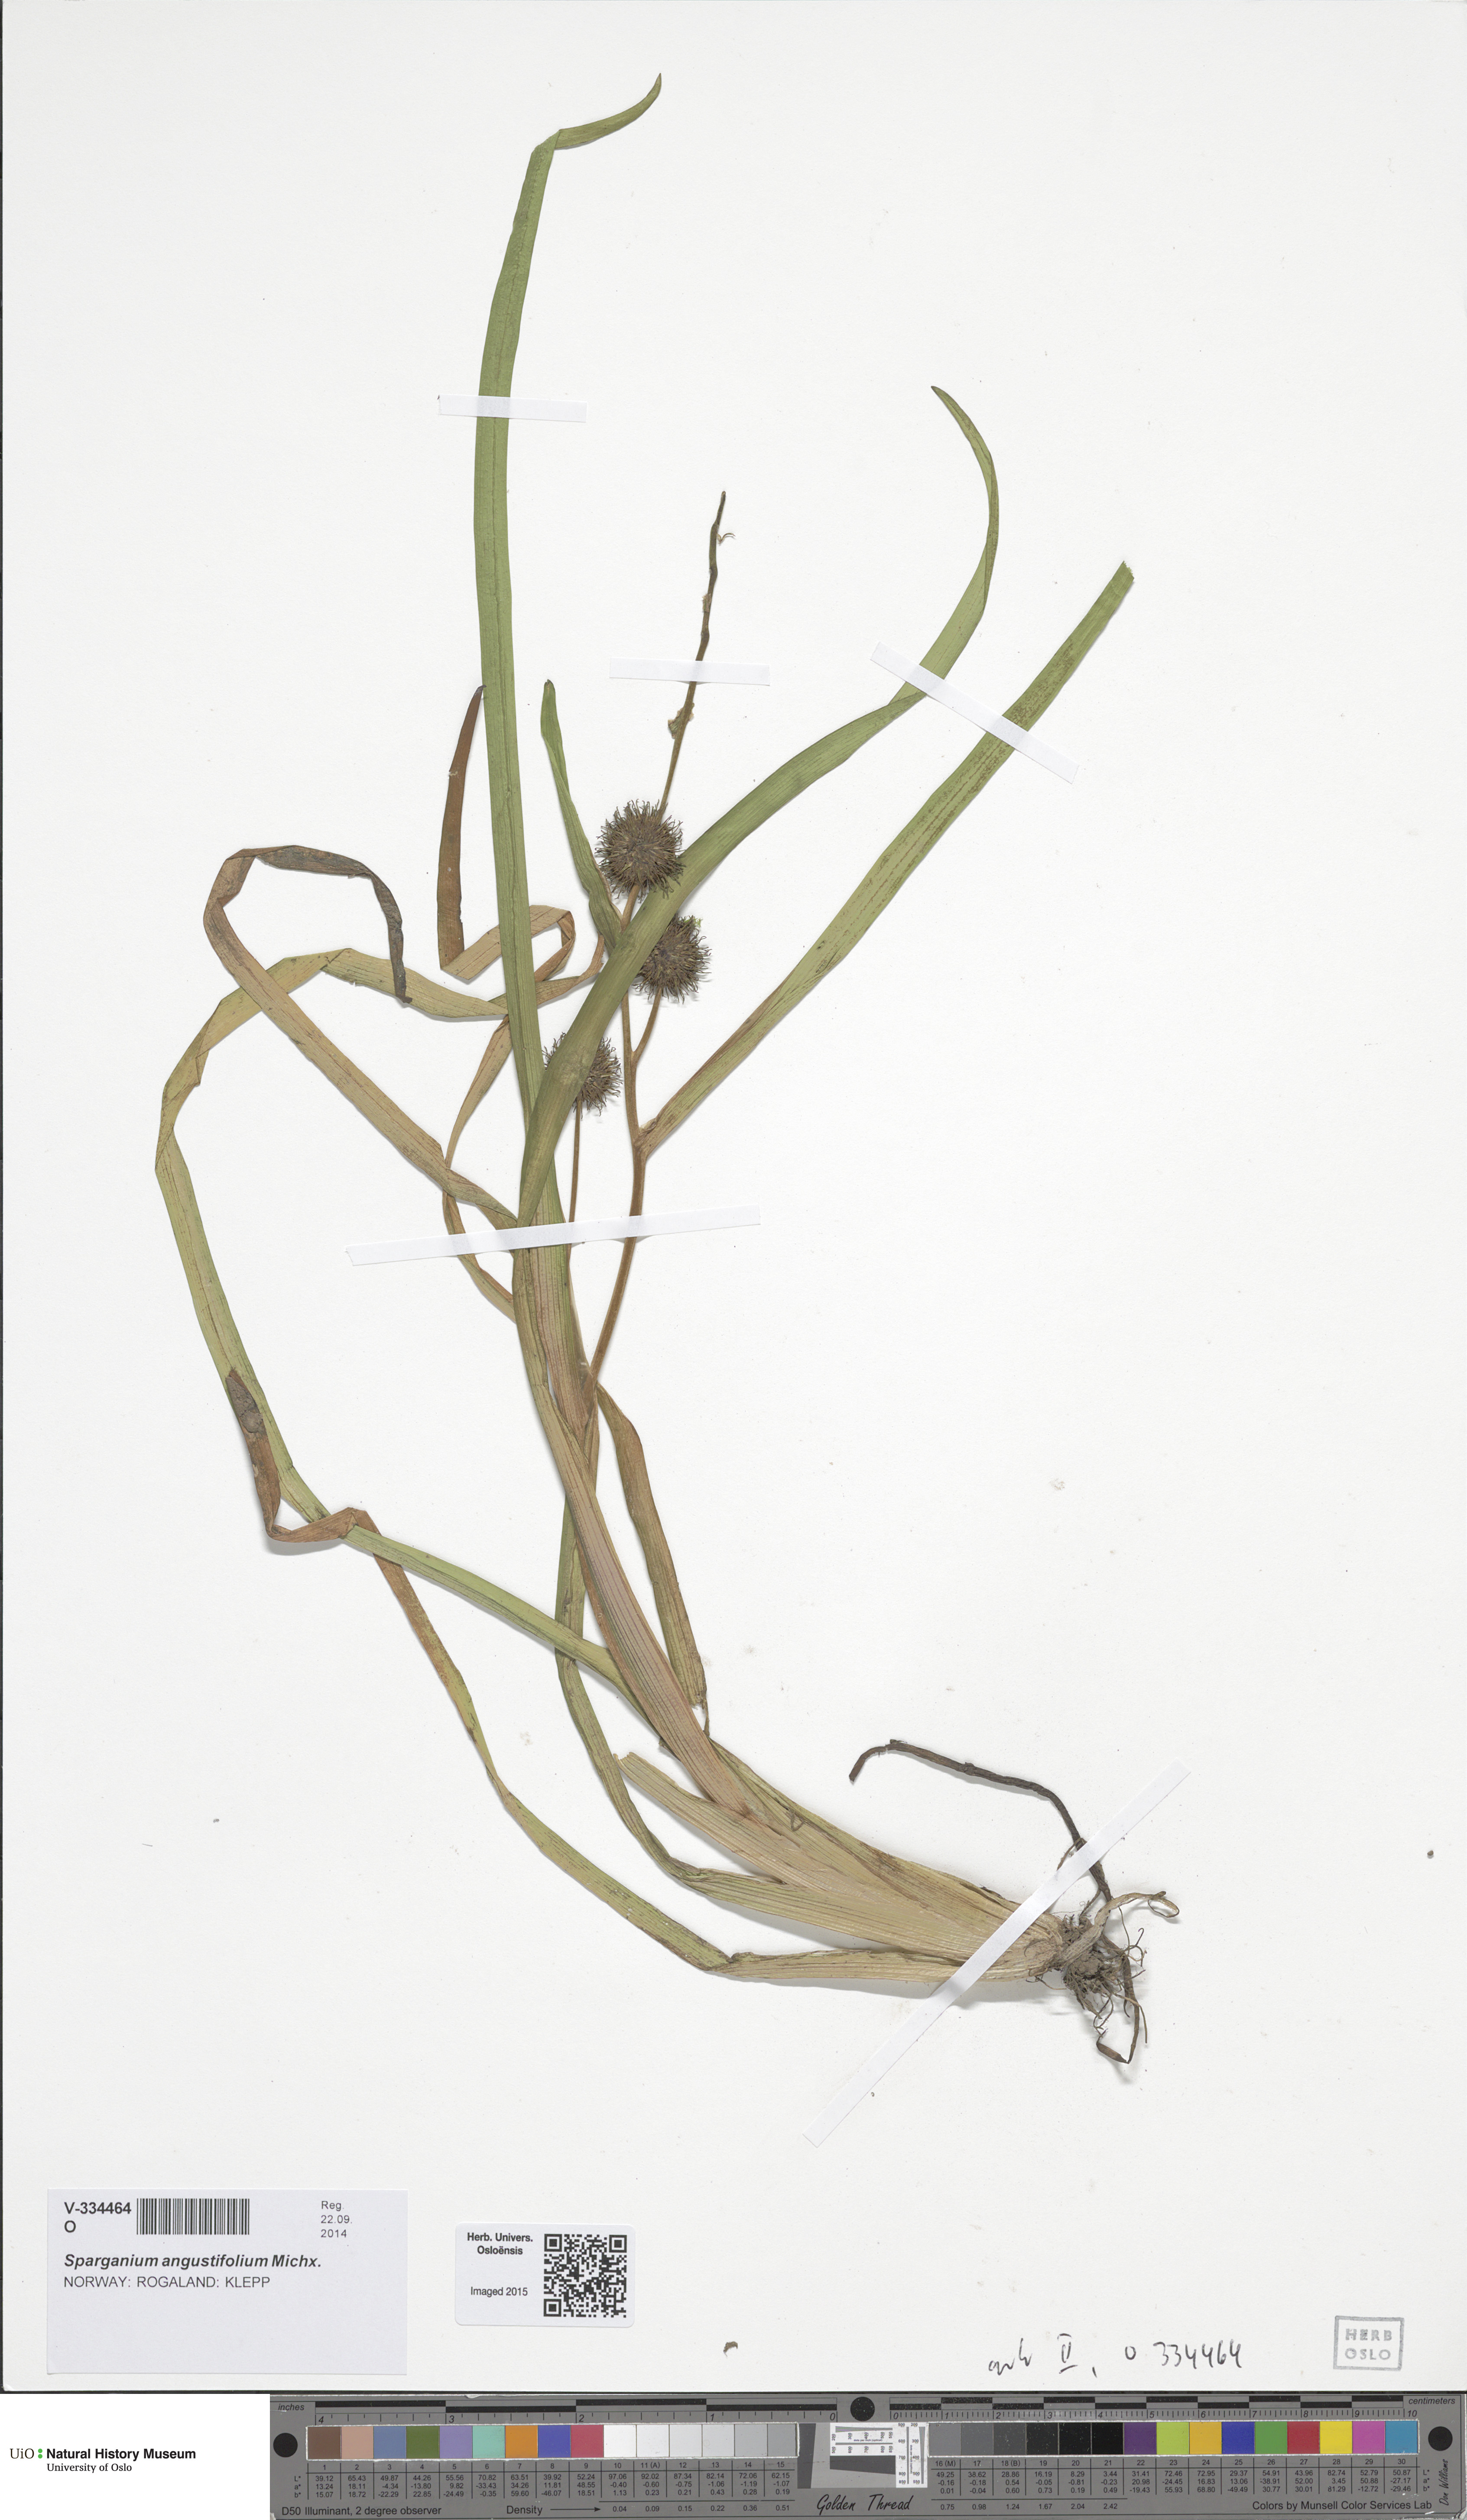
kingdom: Plantae
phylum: Tracheophyta
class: Liliopsida
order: Poales
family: Typhaceae
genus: Sparganium
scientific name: Sparganium angustifolium
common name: Floating bur-reed
